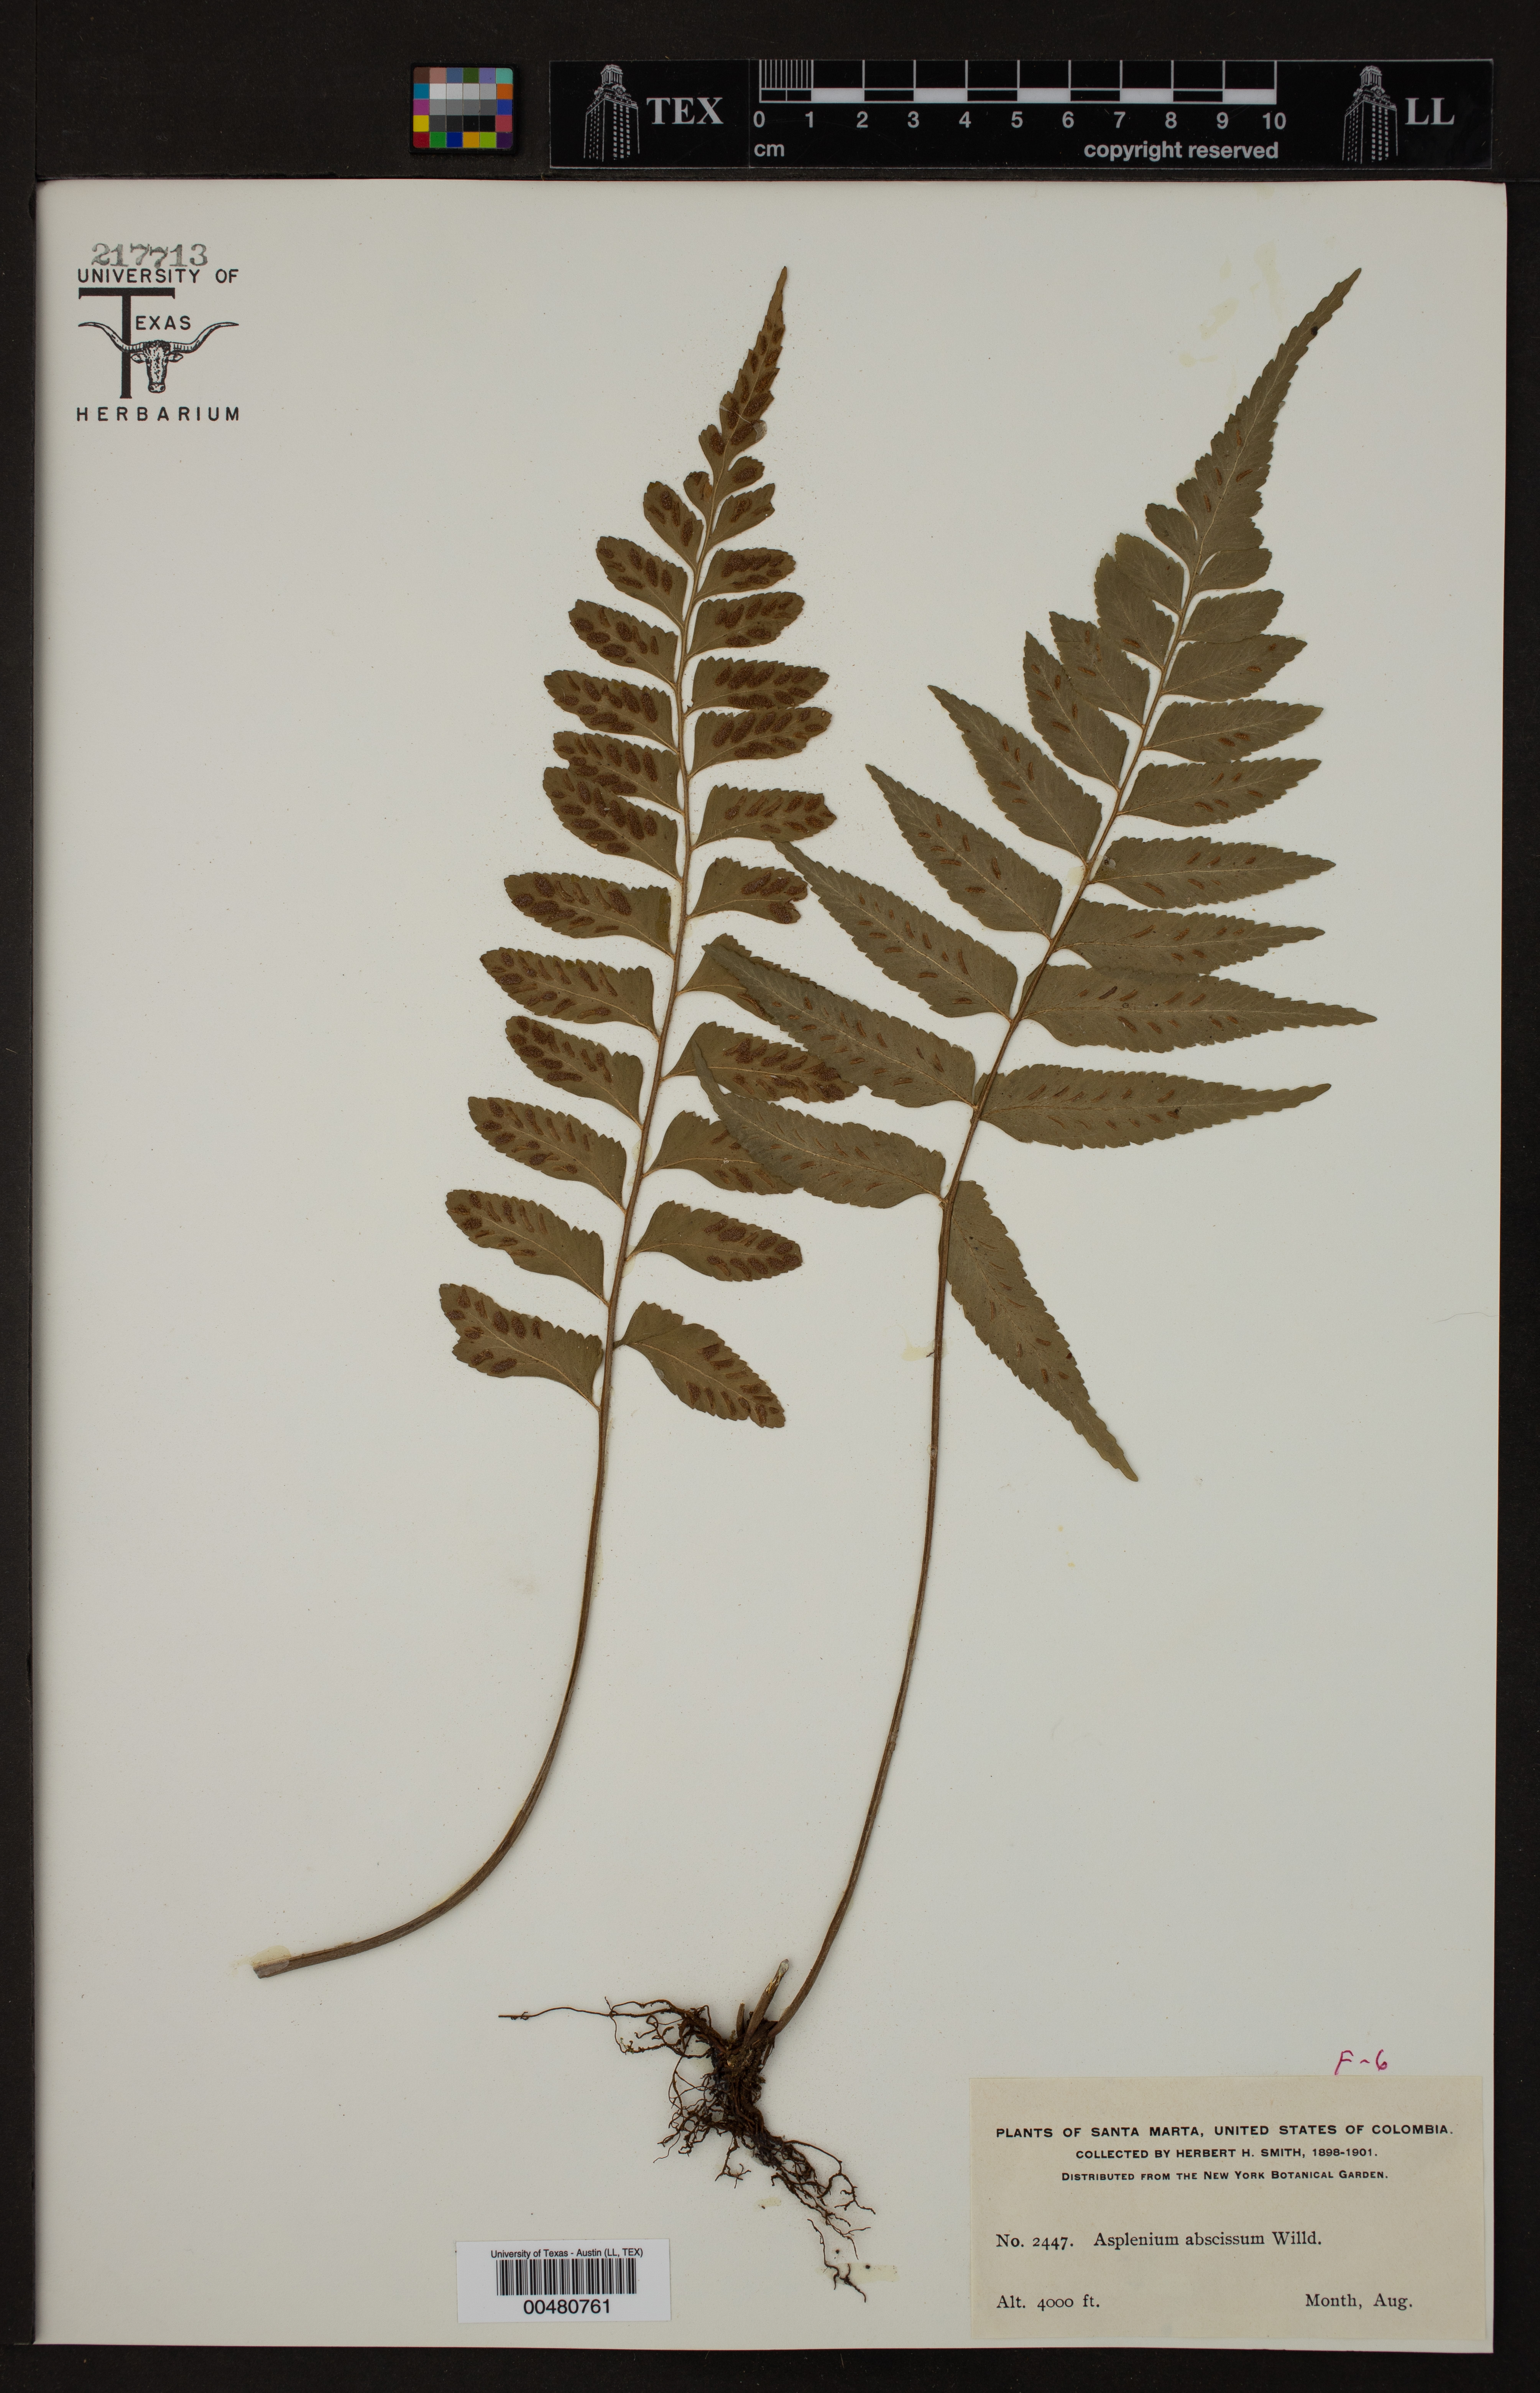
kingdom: Plantae
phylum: Tracheophyta
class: Polypodiopsida
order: Polypodiales
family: Aspleniaceae
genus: Asplenium
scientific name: Asplenium abscissum
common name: Cutleaf spleenwort
